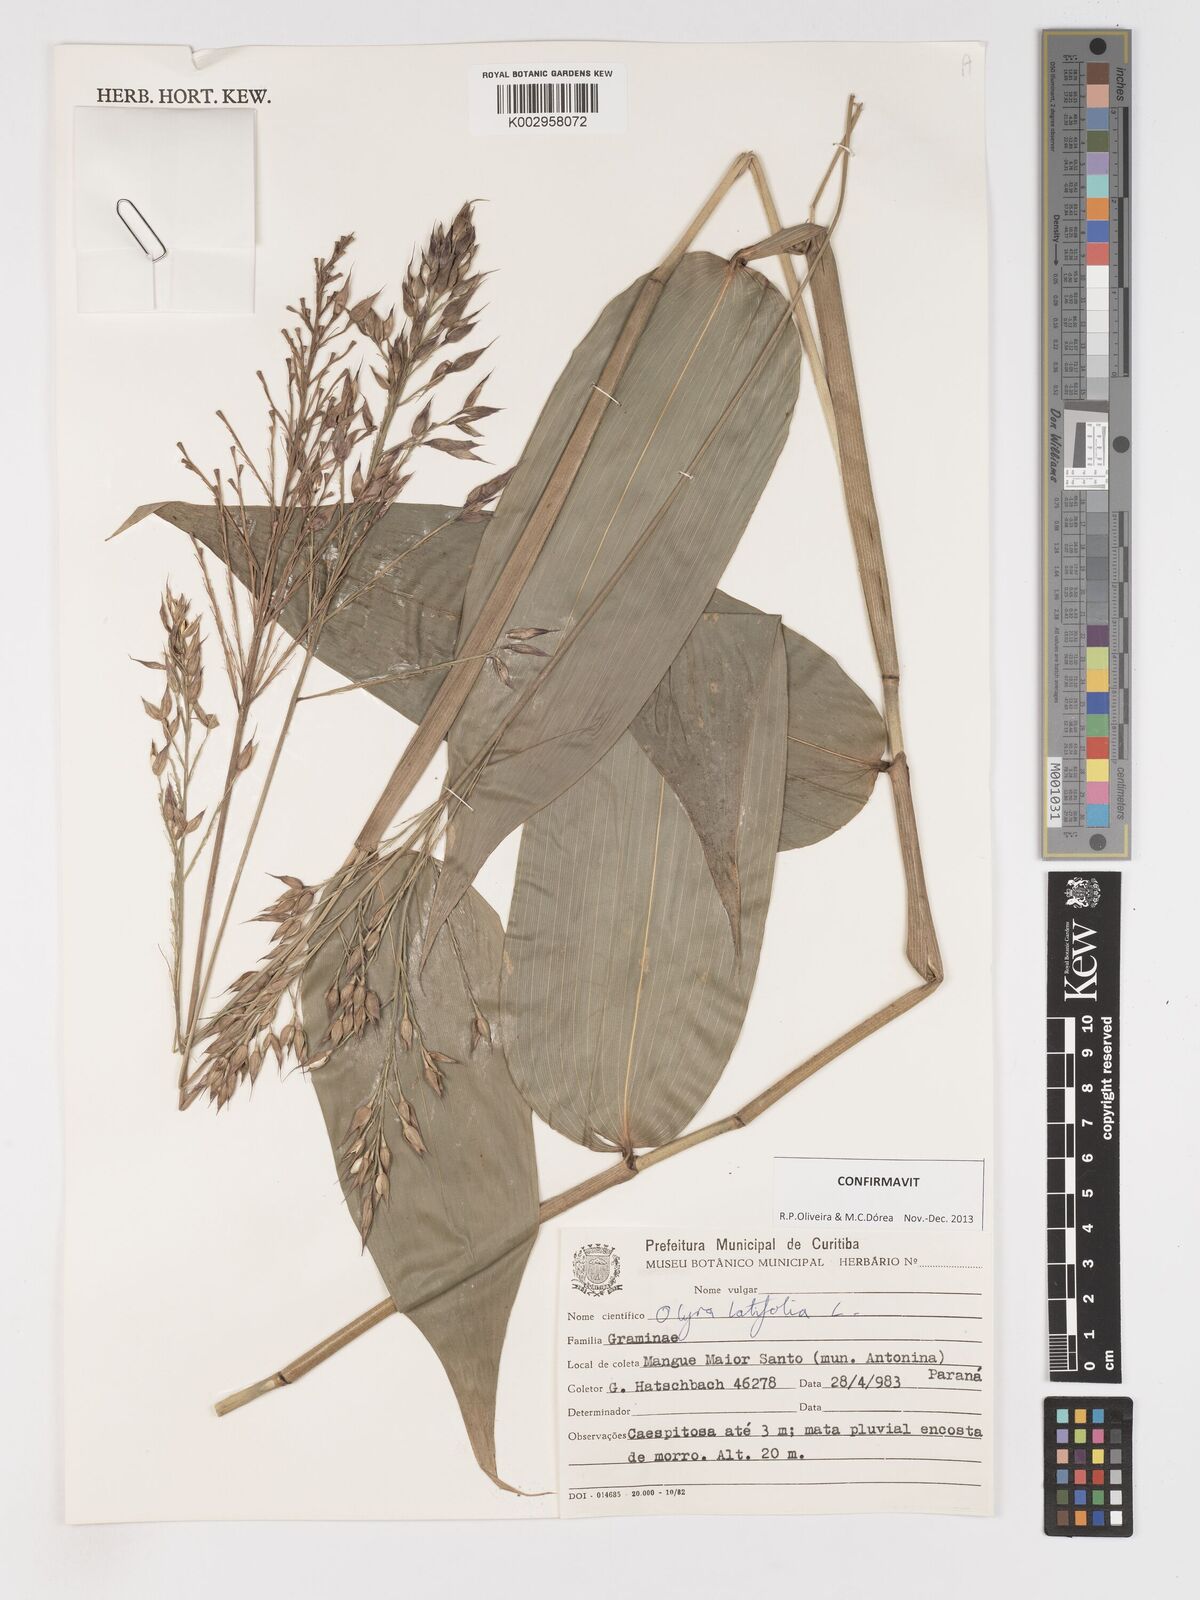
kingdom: Plantae
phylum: Tracheophyta
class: Liliopsida
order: Poales
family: Poaceae
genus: Olyra
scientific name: Olyra latifolia
